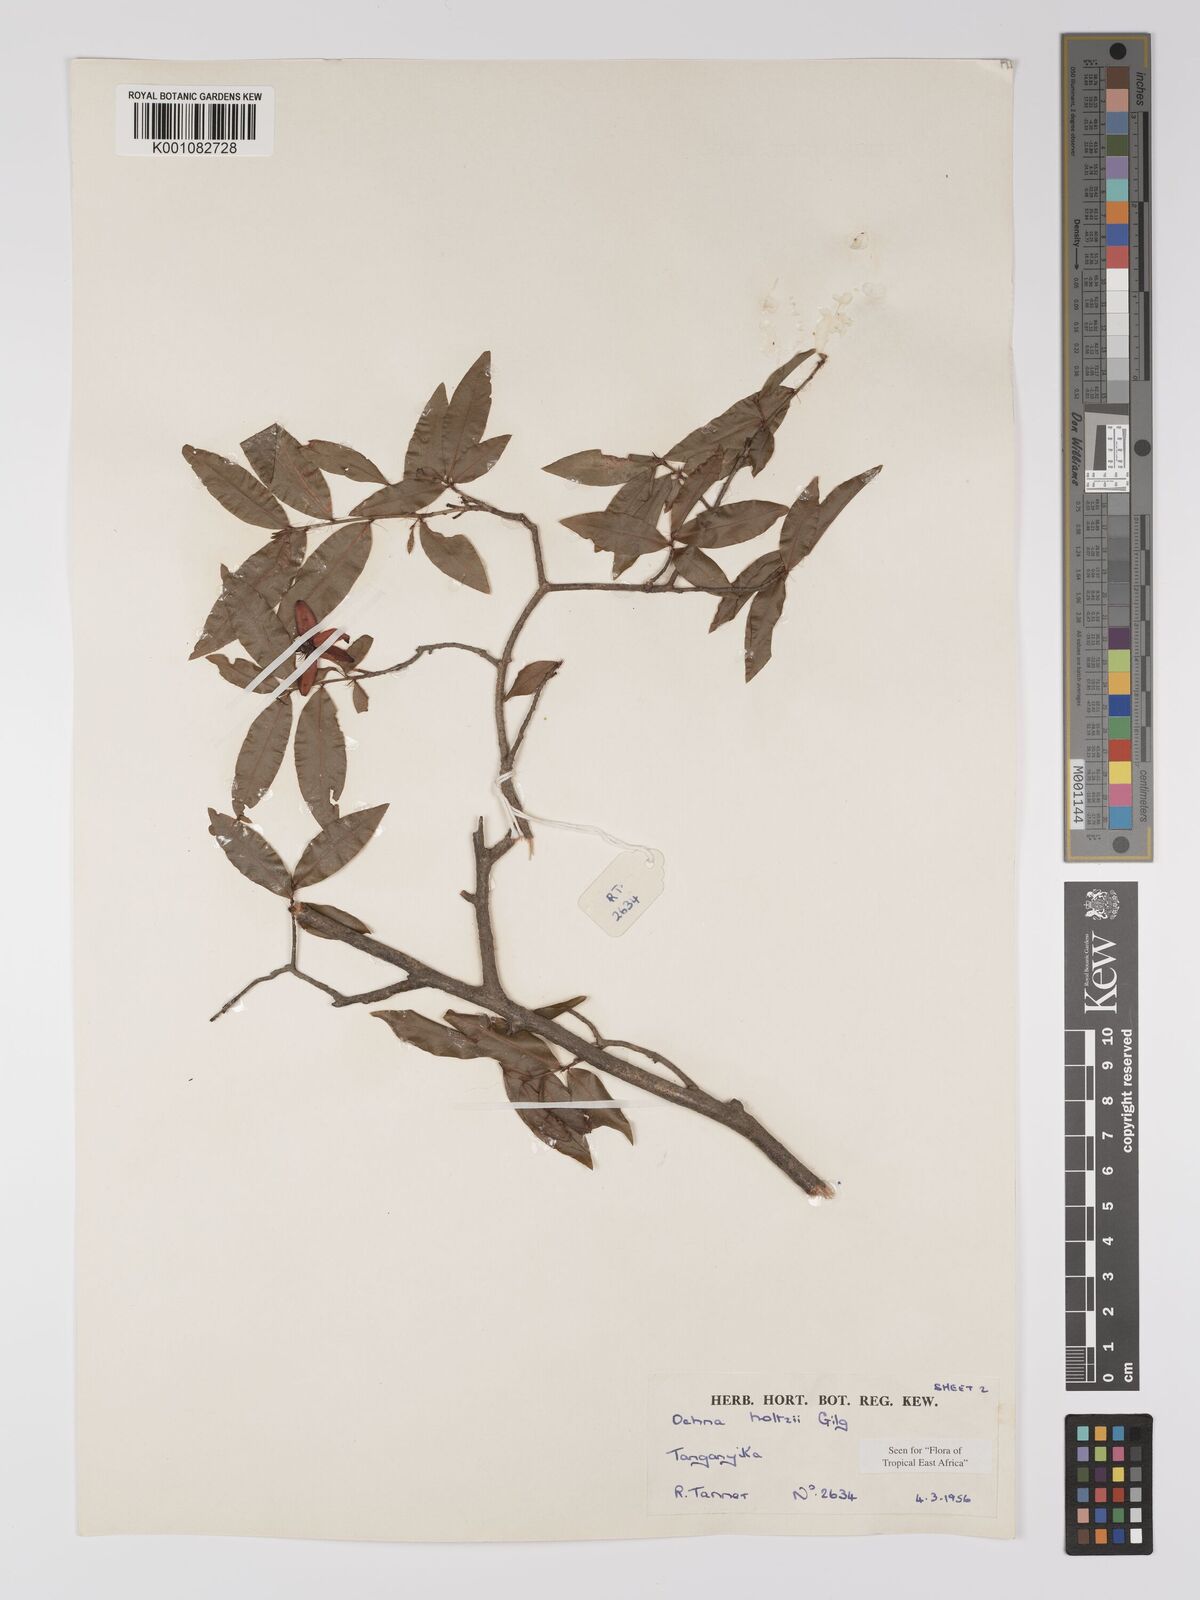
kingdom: Plantae
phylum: Tracheophyta
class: Magnoliopsida
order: Malpighiales
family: Ochnaceae
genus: Ochna
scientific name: Ochna holtzii
